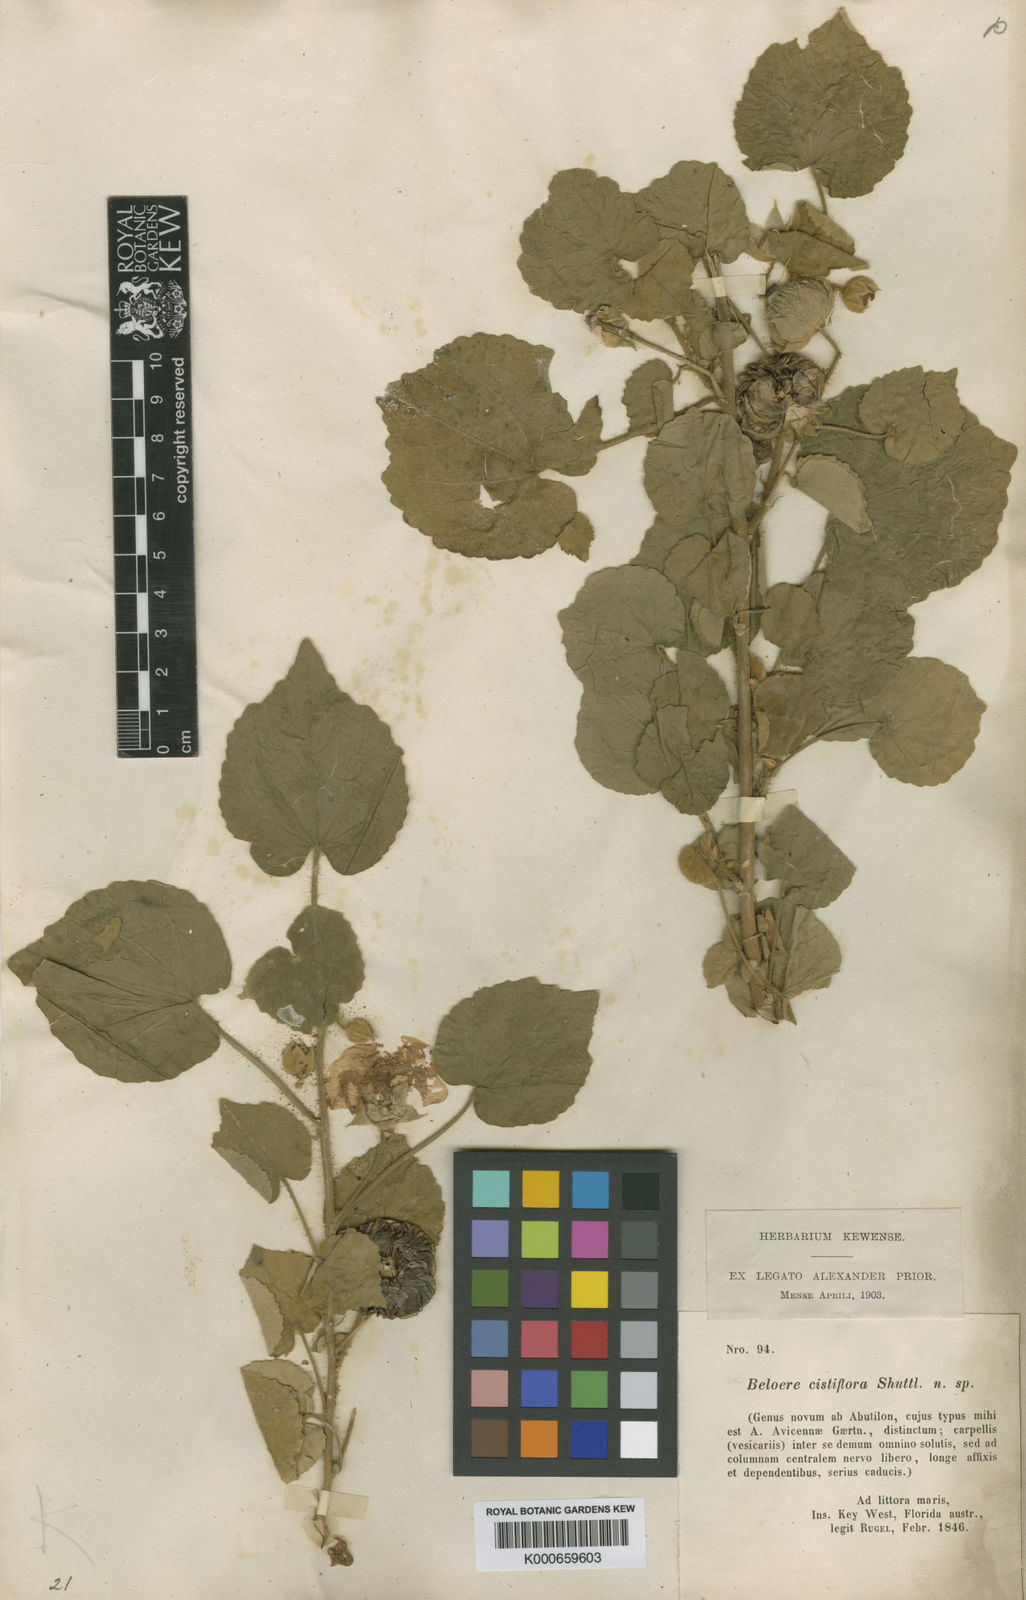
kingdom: Plantae
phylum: Tracheophyta
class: Magnoliopsida
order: Malvales
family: Malvaceae
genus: Abutilon
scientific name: Abutilon hirtum
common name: Florida keys indian mallow
